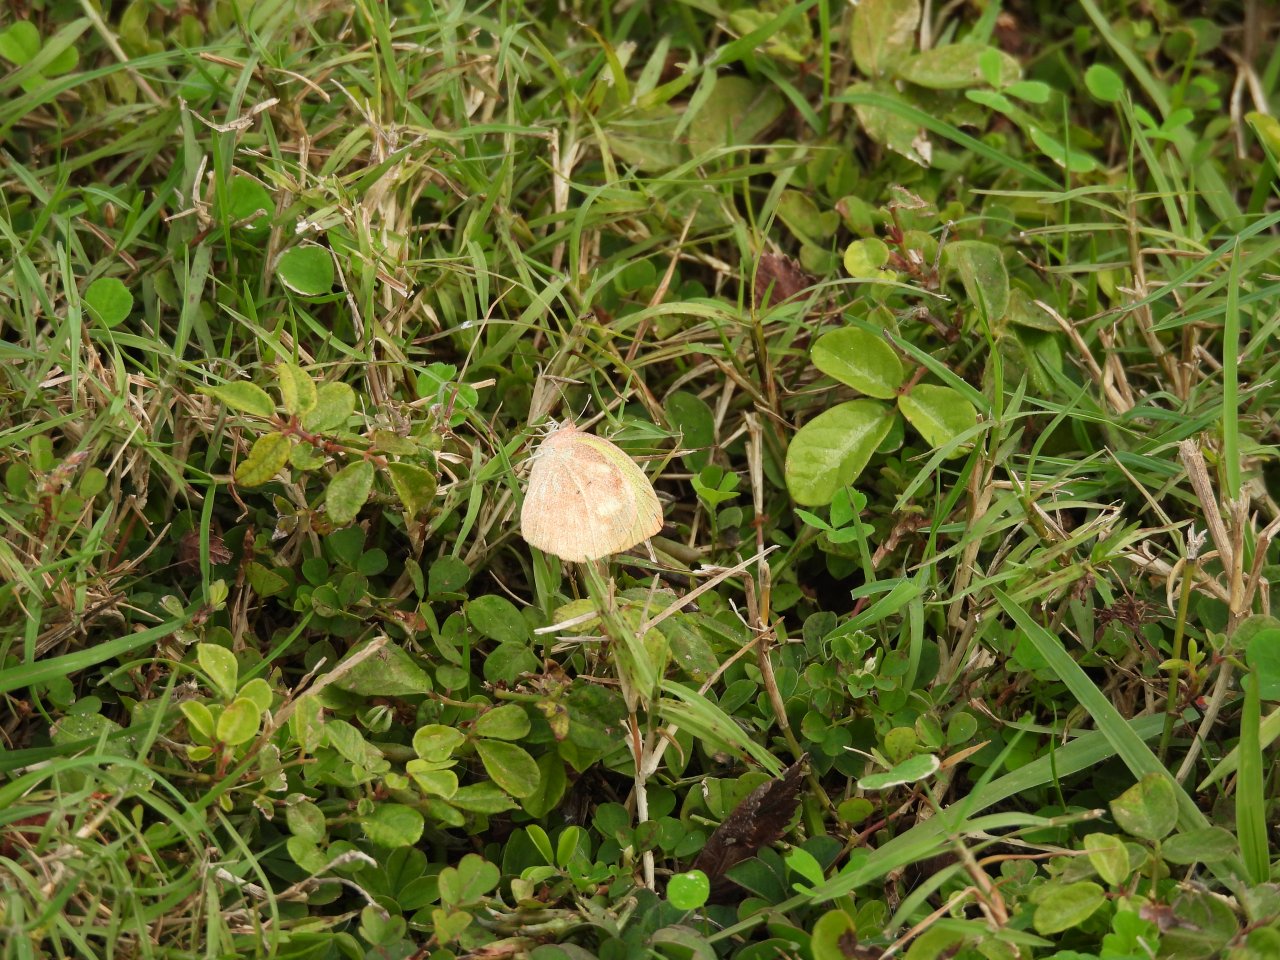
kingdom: Animalia
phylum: Arthropoda
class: Insecta
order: Lepidoptera
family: Pieridae
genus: Eurema
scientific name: Eurema
